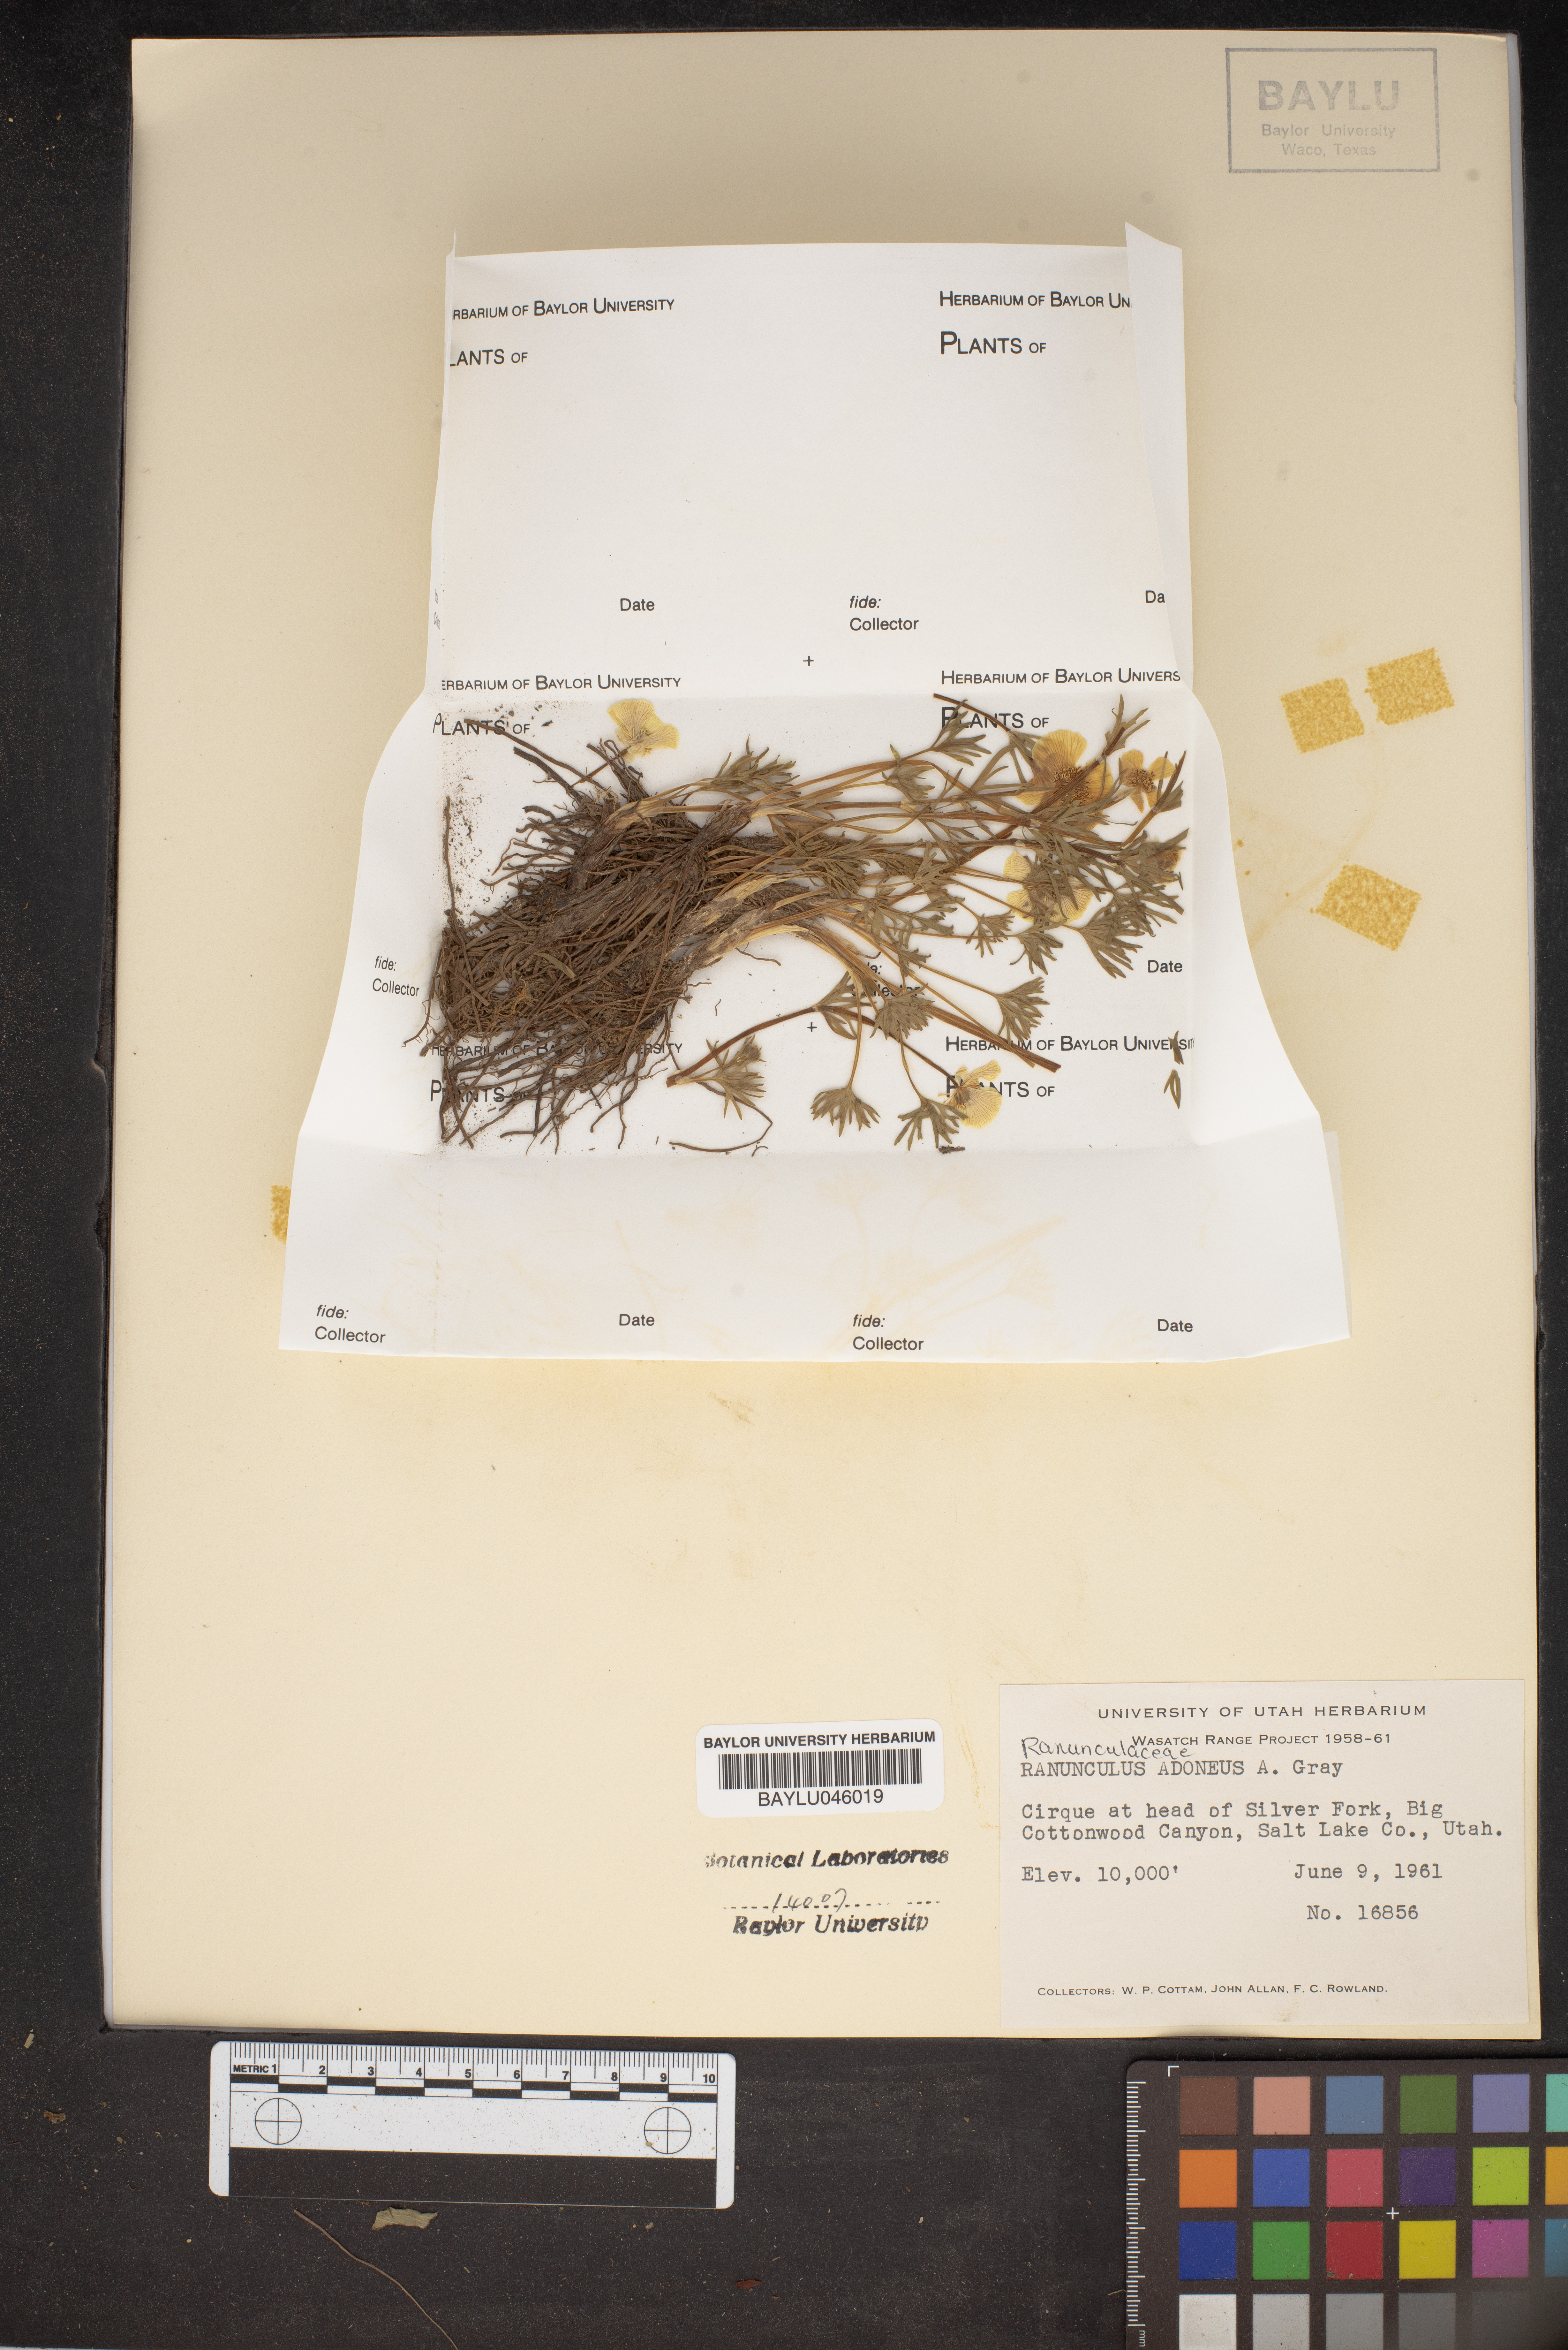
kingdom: Plantae
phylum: Tracheophyta
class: Magnoliopsida
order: Ranunculales
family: Ranunculaceae
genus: Ranunculus
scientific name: Ranunculus adoneus
